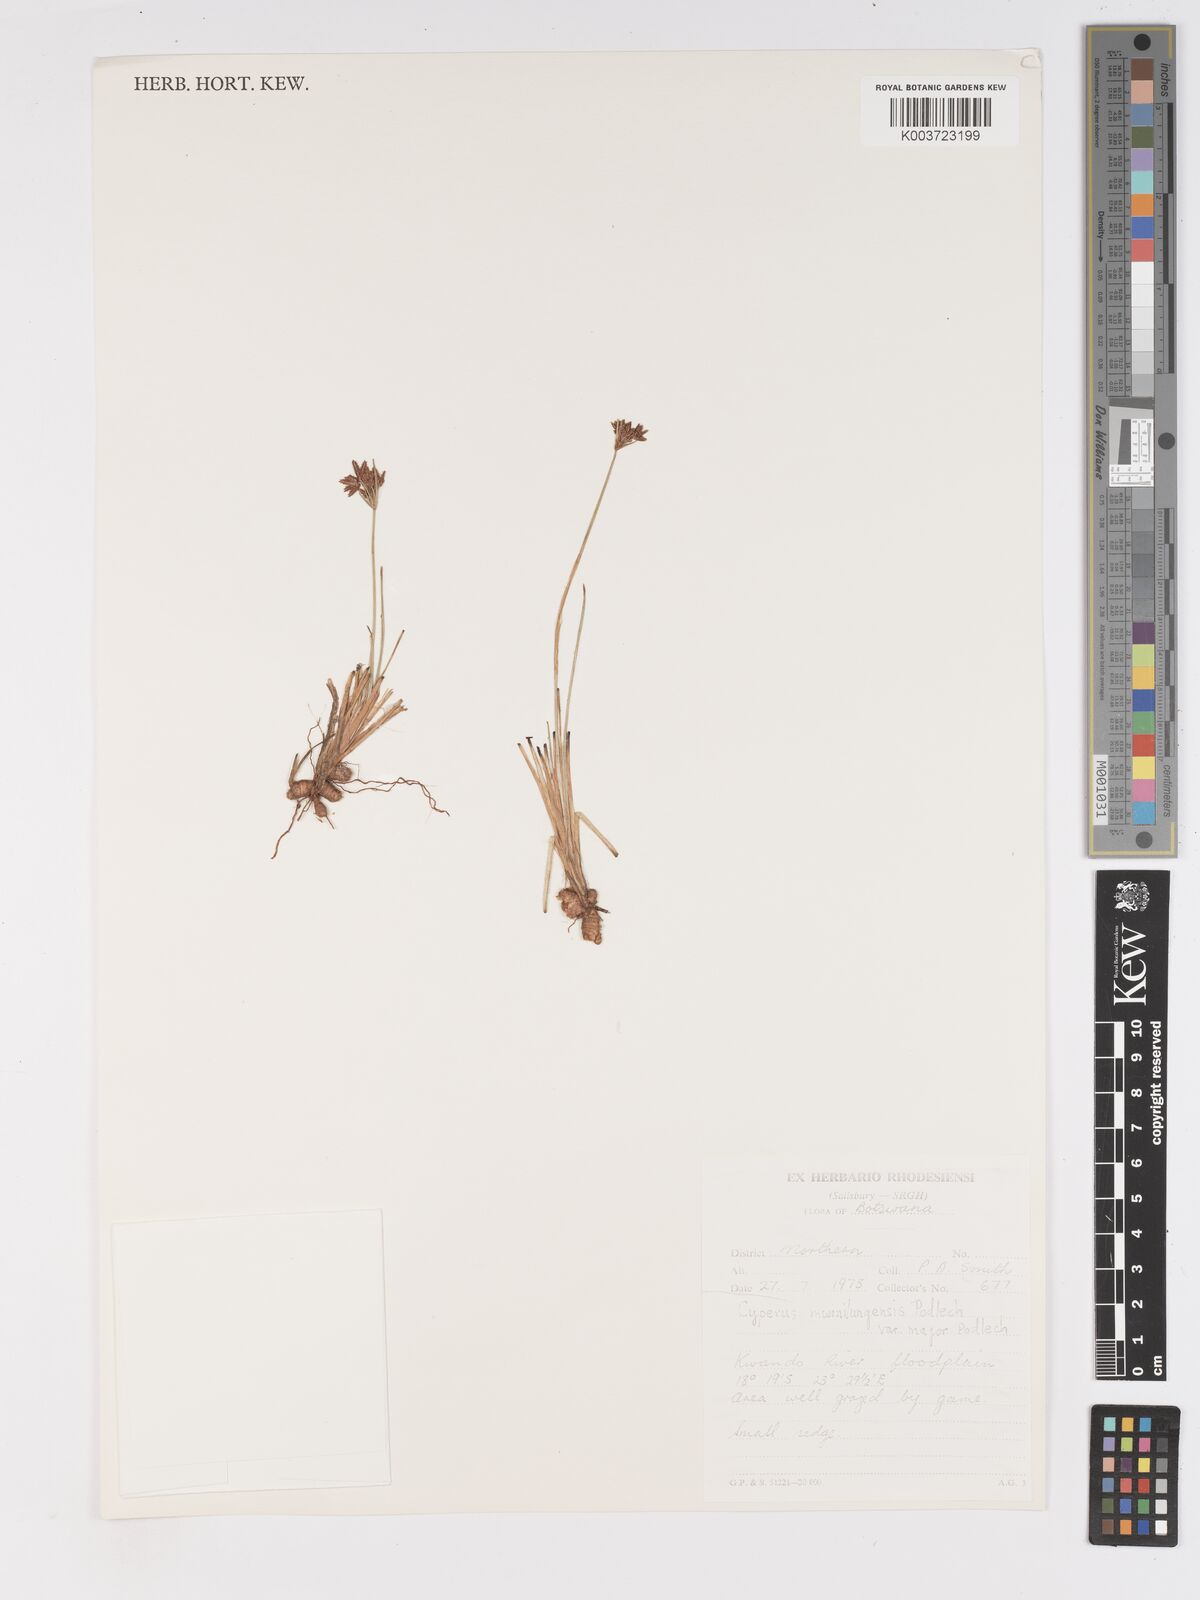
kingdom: Plantae
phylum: Tracheophyta
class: Liliopsida
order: Poales
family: Cyperaceae
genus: Cyperus
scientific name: Cyperus mwinilungensis
